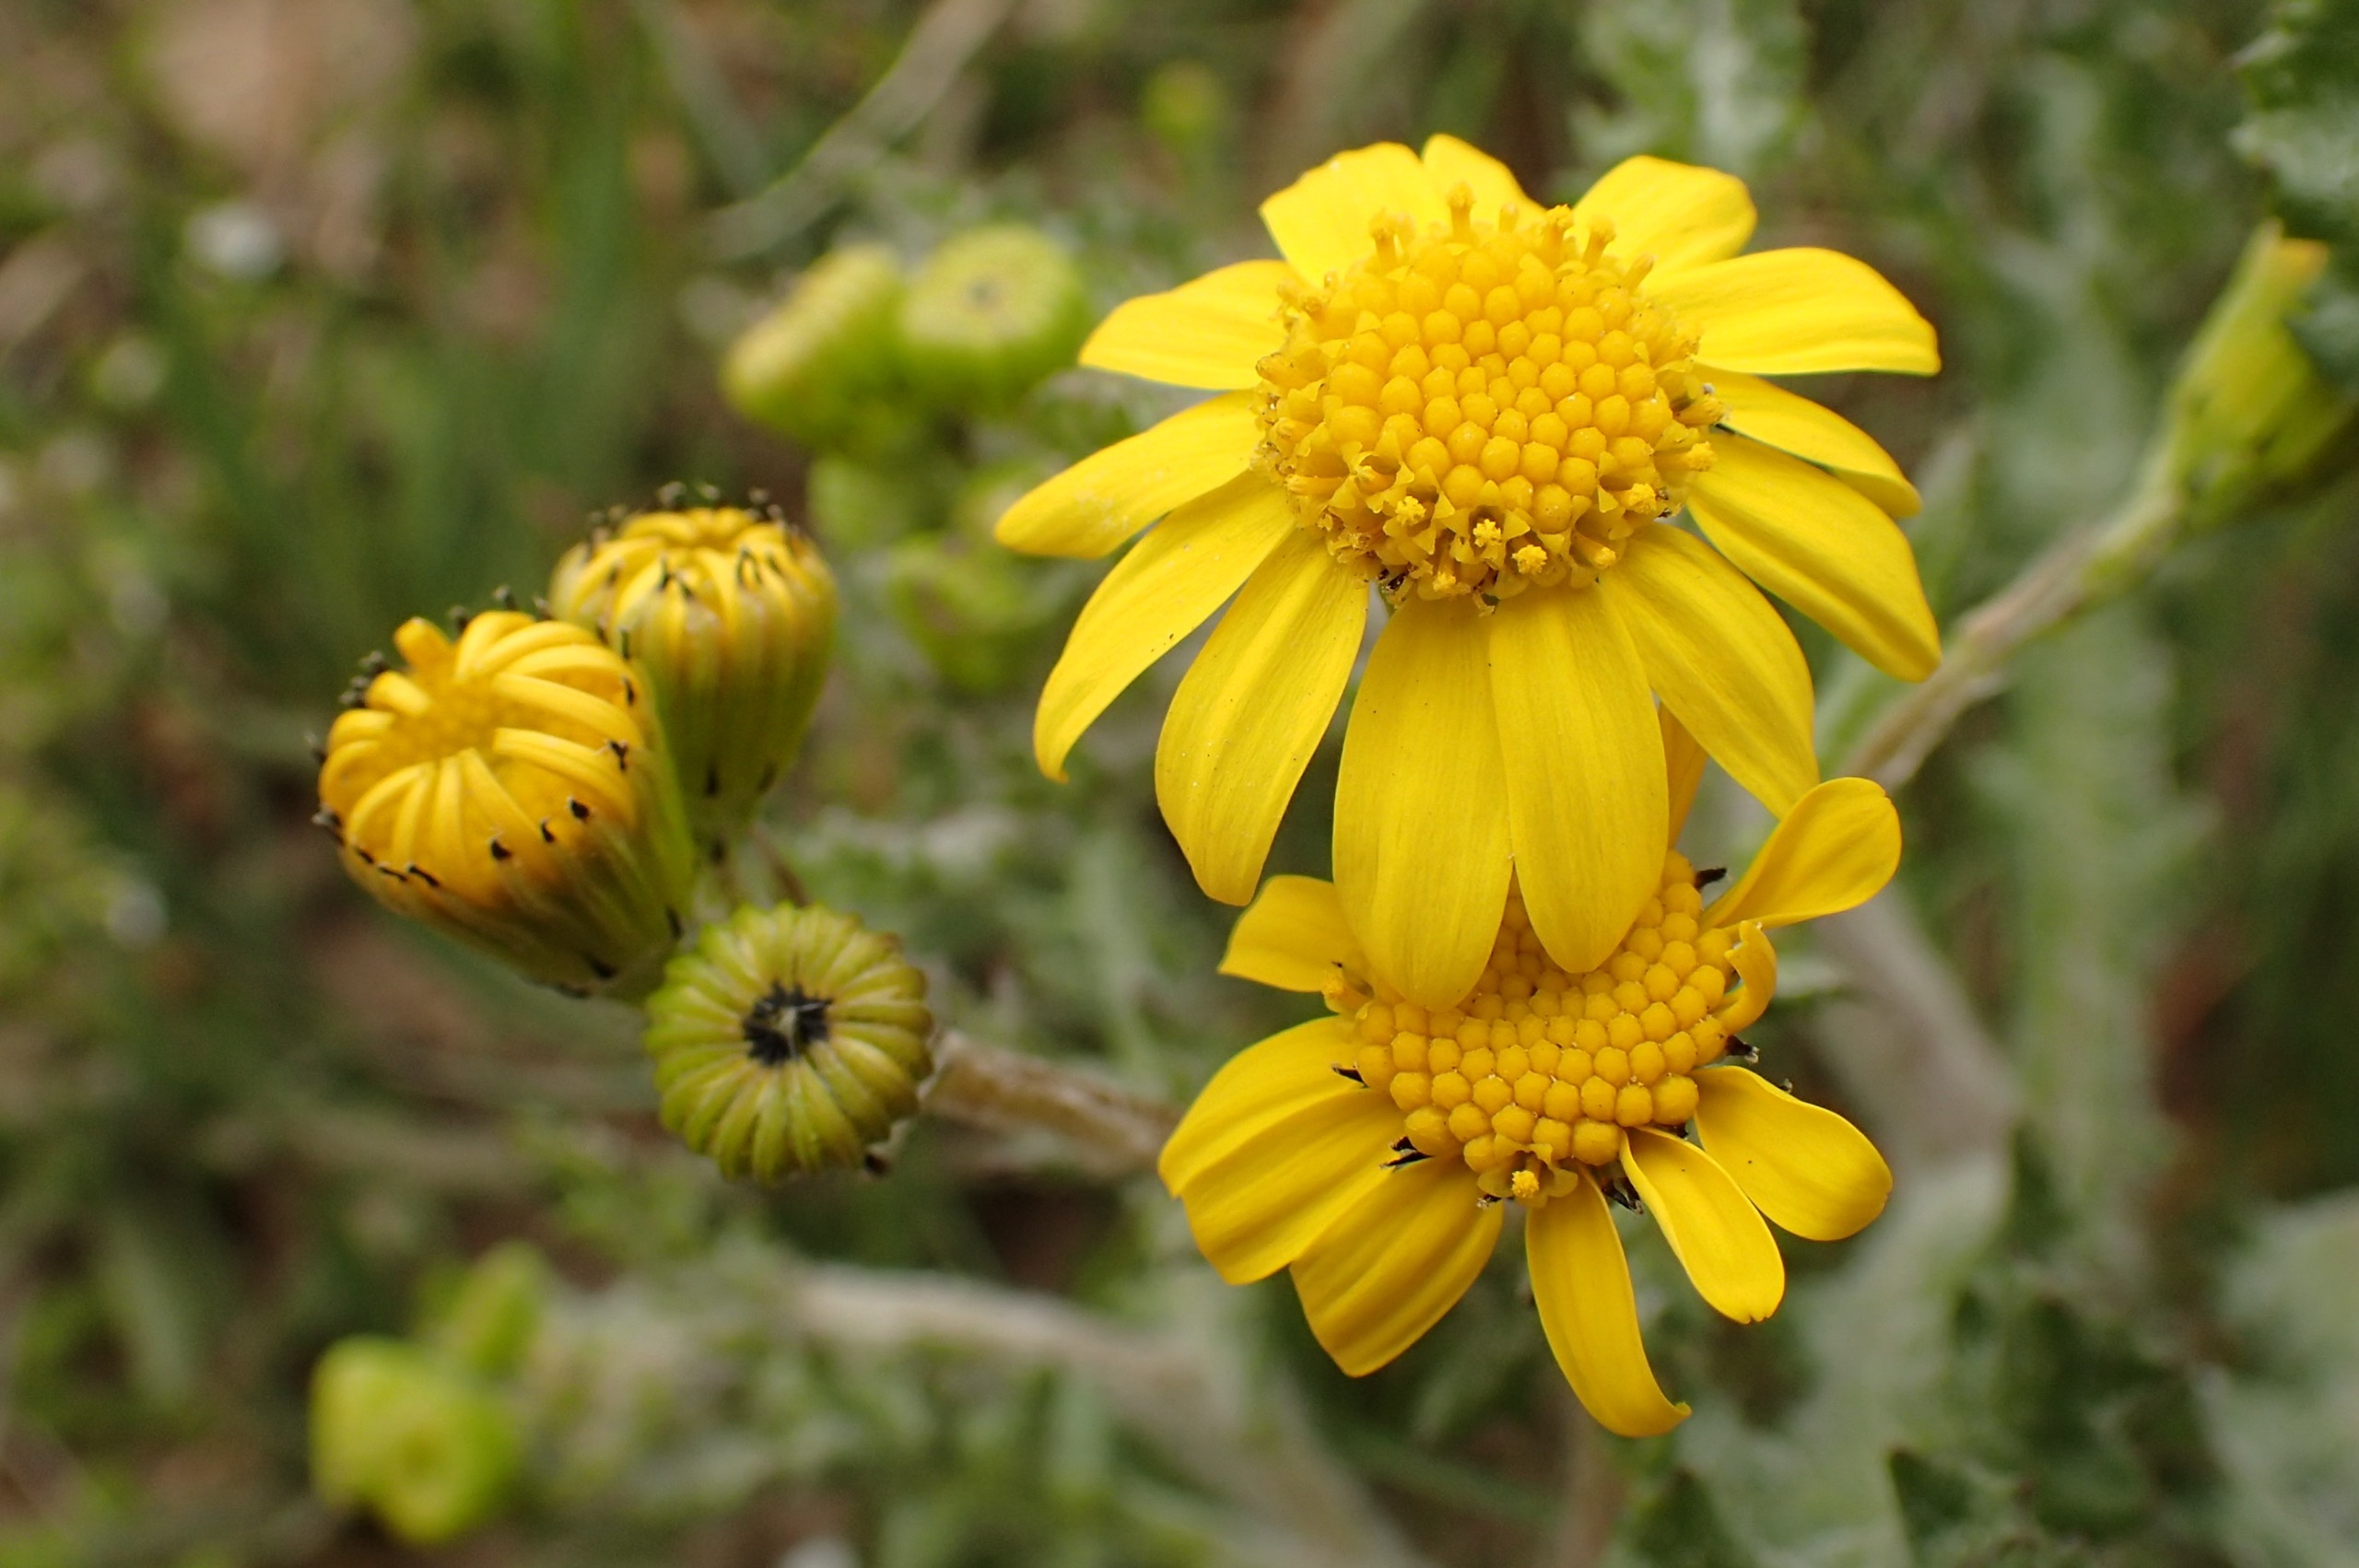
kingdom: Plantae
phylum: Tracheophyta
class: Magnoliopsida
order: Asterales
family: Asteraceae
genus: Senecio
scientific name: Senecio leucanthemifolius
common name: Vår-brandbæger
